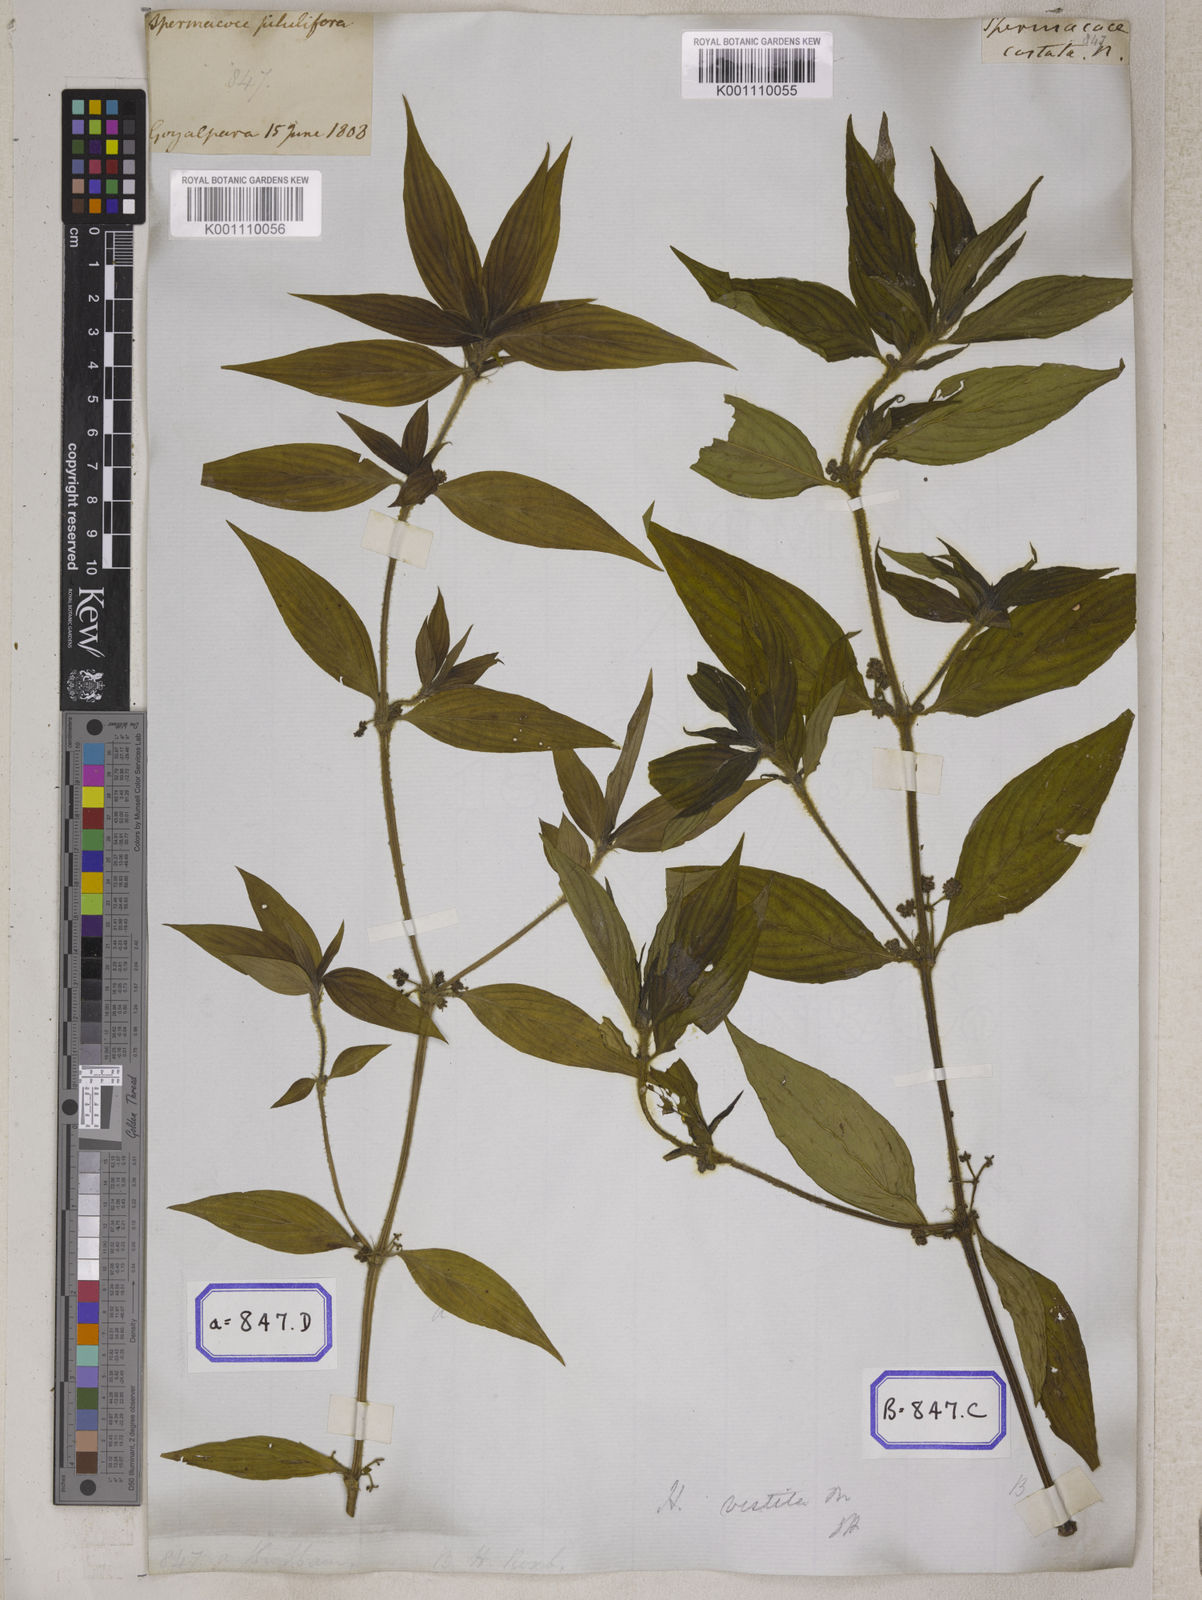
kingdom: Plantae
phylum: Tracheophyta
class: Magnoliopsida
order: Gentianales
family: Rubiaceae
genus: Hedyotis
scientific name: Hedyotis
